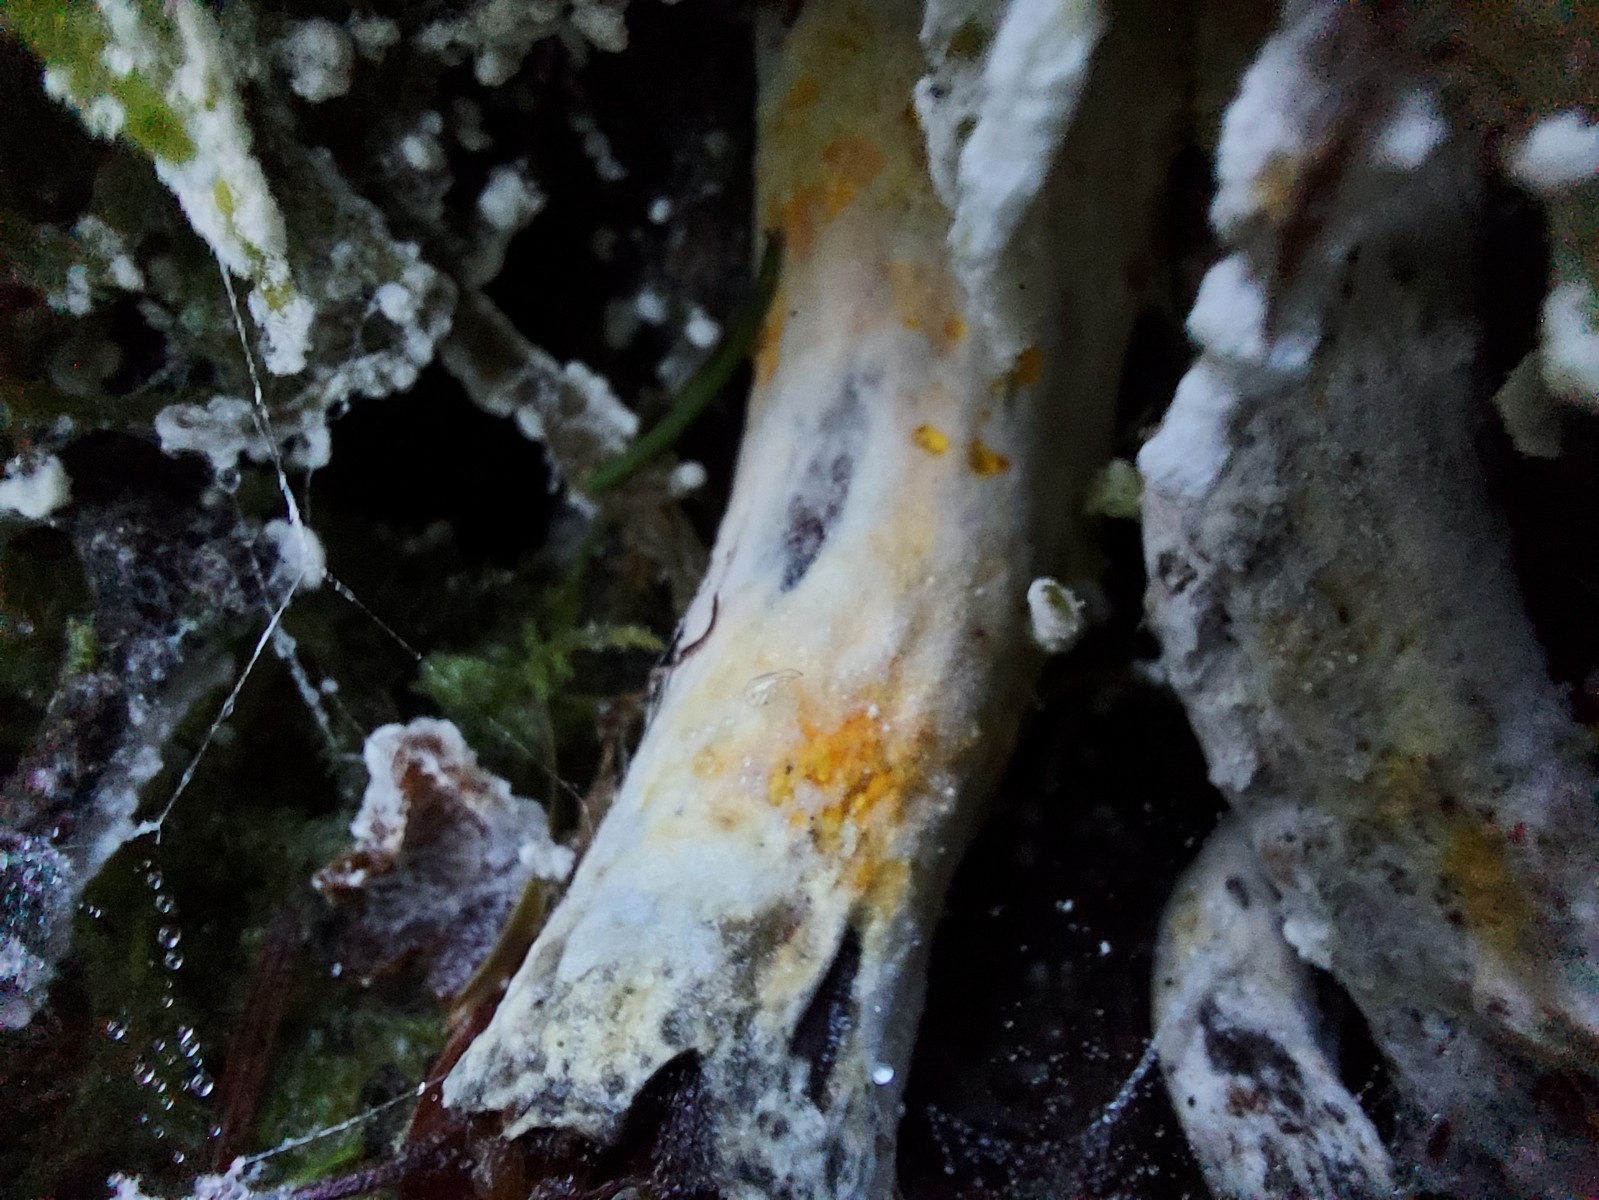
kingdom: Fungi
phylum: Ascomycota
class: Sordariomycetes
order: Hypocreales
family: Hypocreaceae
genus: Hypomyces
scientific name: Hypomyces
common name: snylteskorpe
